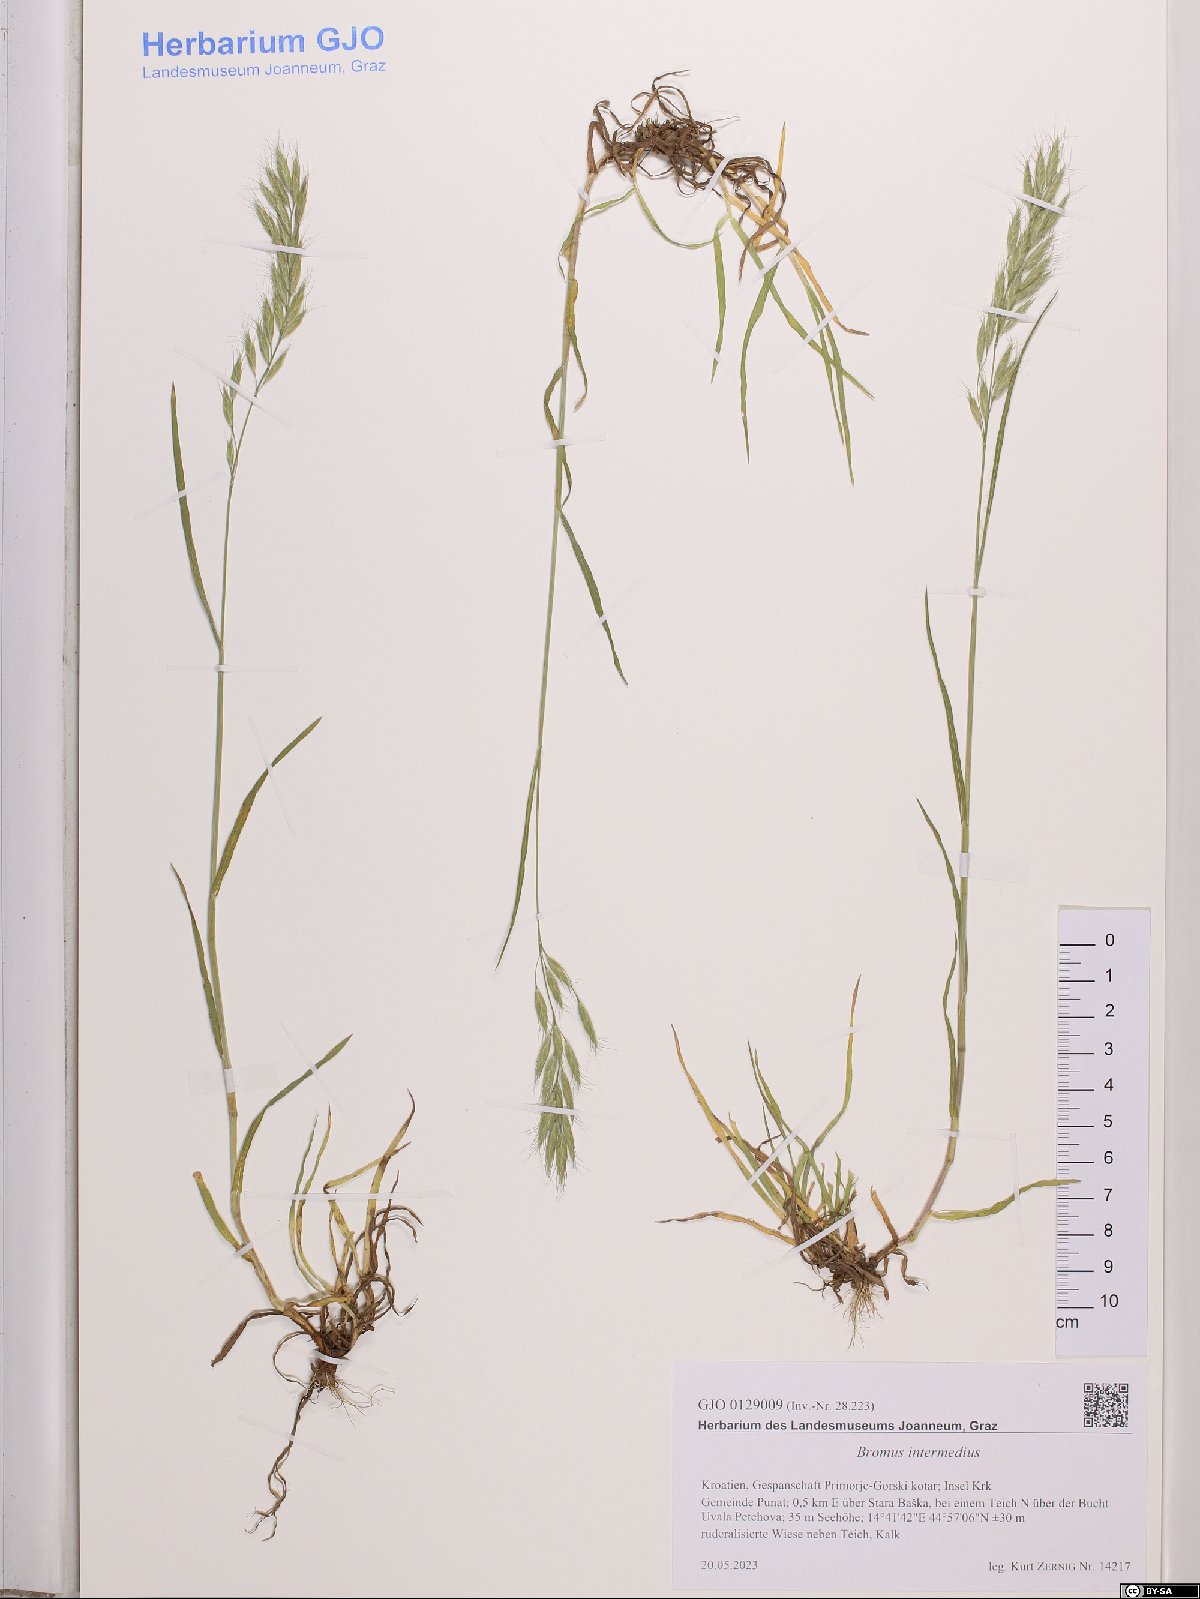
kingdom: Plantae
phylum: Tracheophyta
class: Liliopsida
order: Poales
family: Poaceae
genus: Bromus
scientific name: Bromus intermedius
